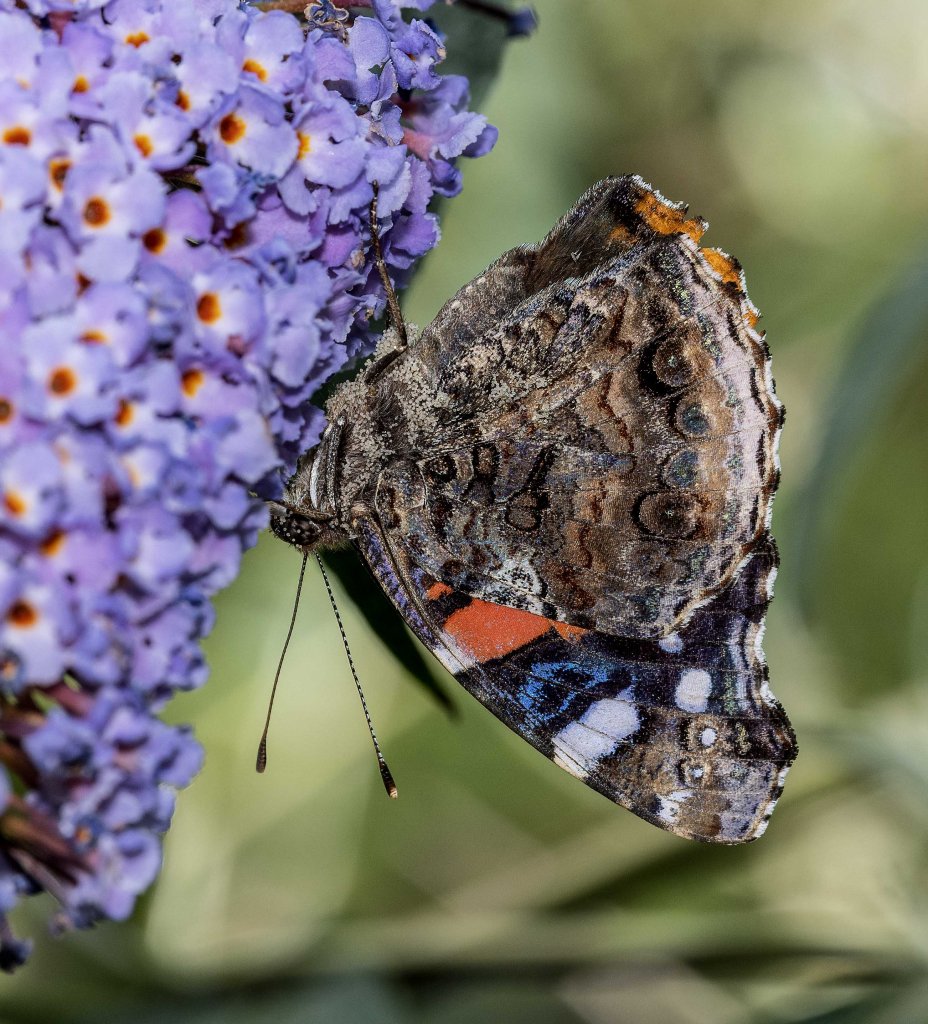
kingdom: Animalia
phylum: Arthropoda
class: Insecta
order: Lepidoptera
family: Nymphalidae
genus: Vanessa
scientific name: Vanessa atalanta
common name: Red Admiral
